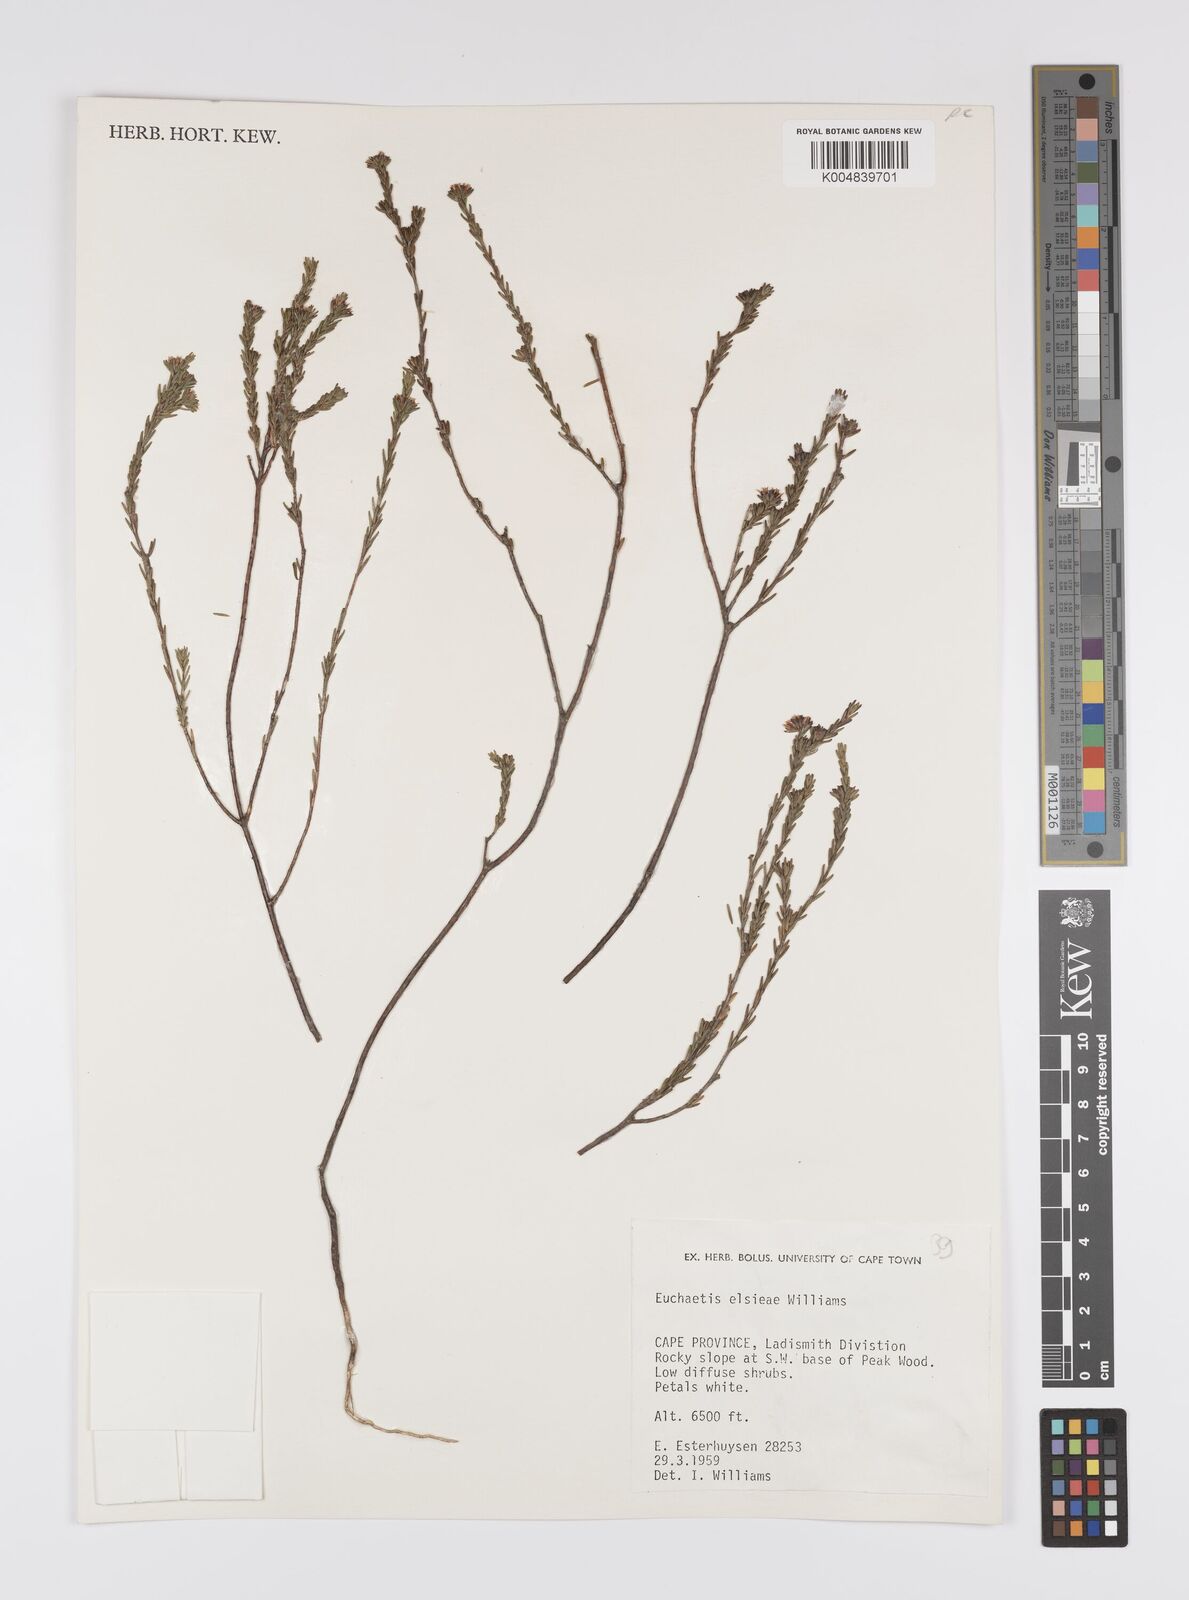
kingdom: Plantae
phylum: Tracheophyta
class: Magnoliopsida
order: Sapindales
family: Rutaceae
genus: Euchaetis
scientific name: Euchaetis elsieae
